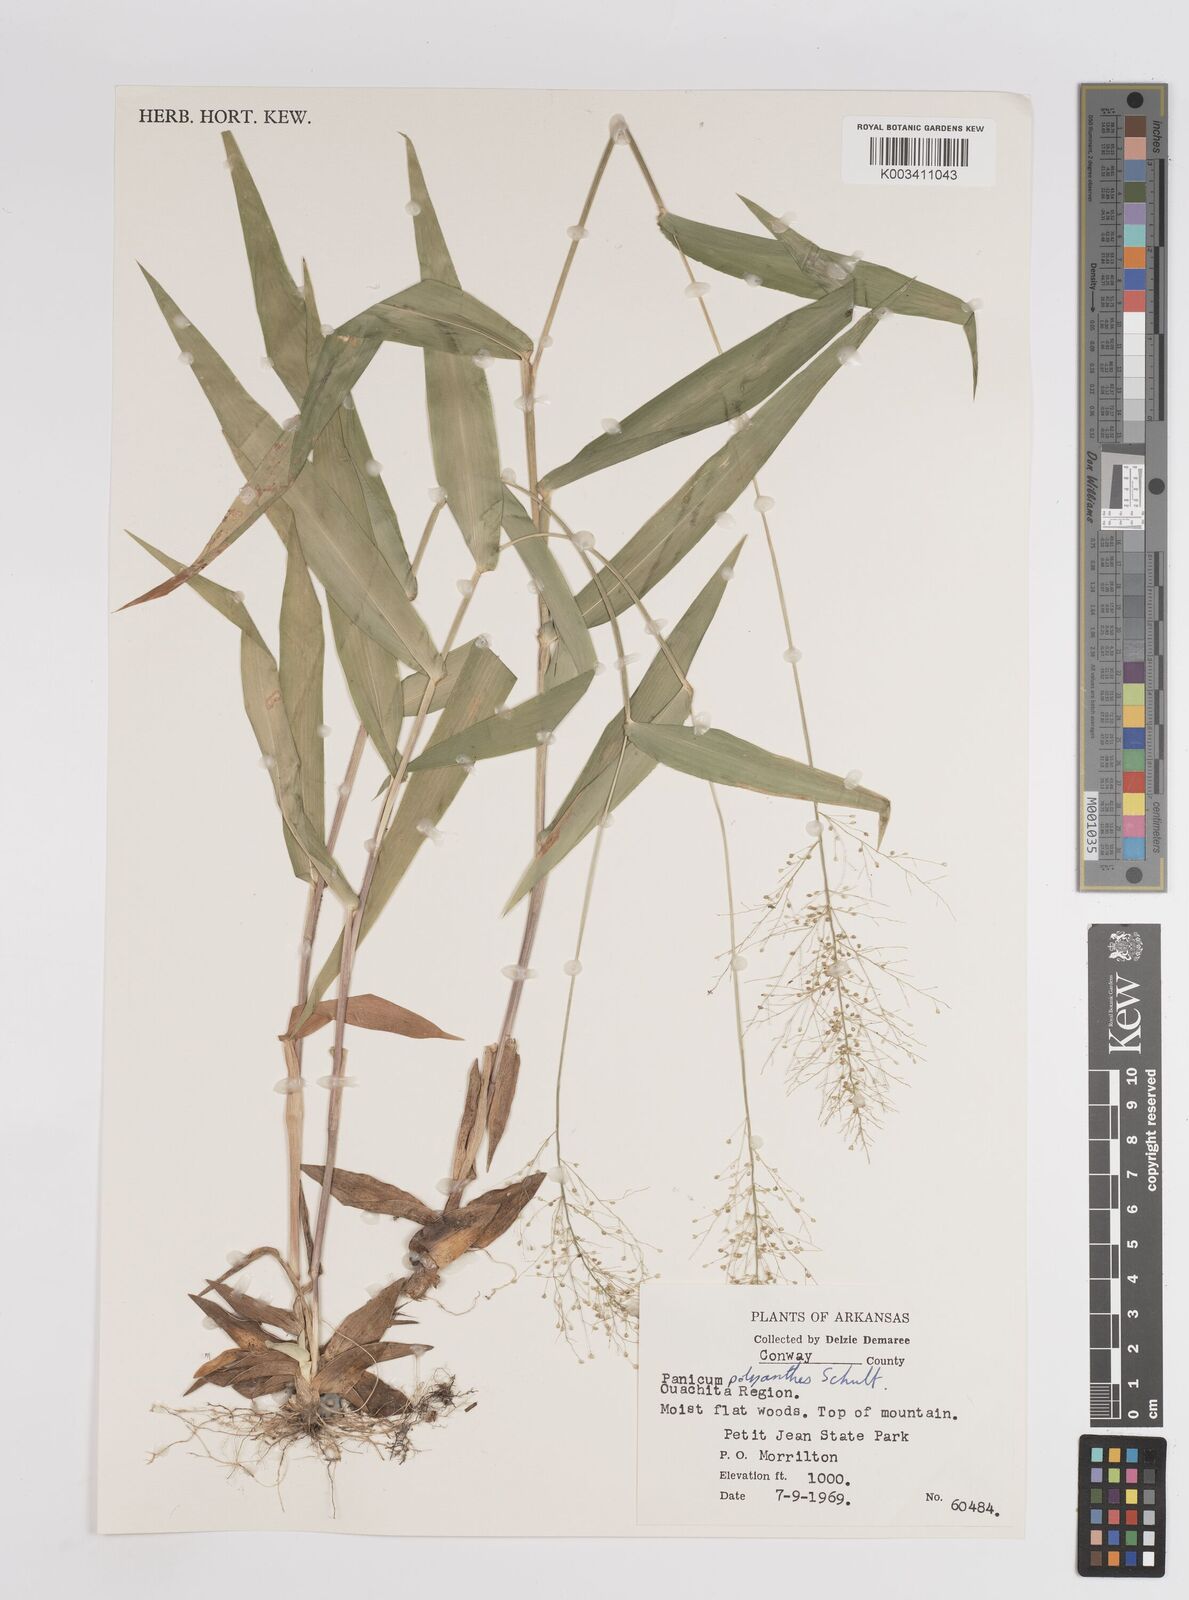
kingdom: Plantae
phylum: Tracheophyta
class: Liliopsida
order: Poales
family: Poaceae
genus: Dichanthelium
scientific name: Dichanthelium polyanthes
